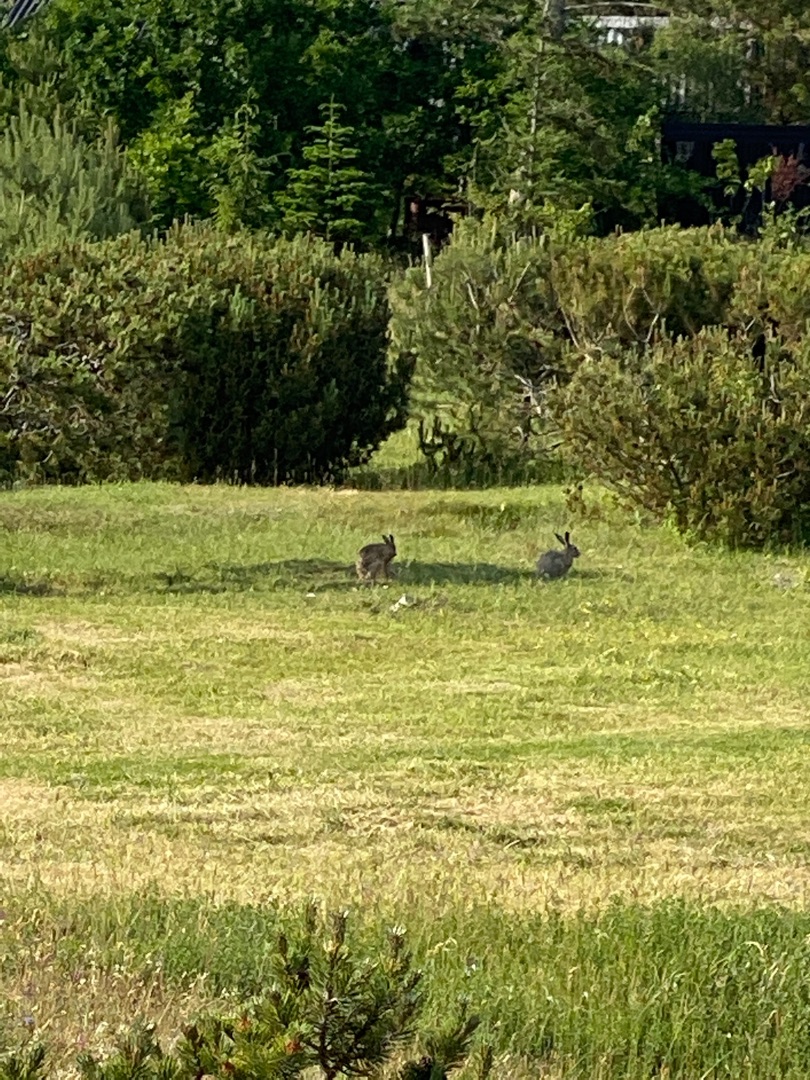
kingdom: Animalia
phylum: Chordata
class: Mammalia
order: Lagomorpha
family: Leporidae
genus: Lepus
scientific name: Lepus europaeus
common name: Hare
